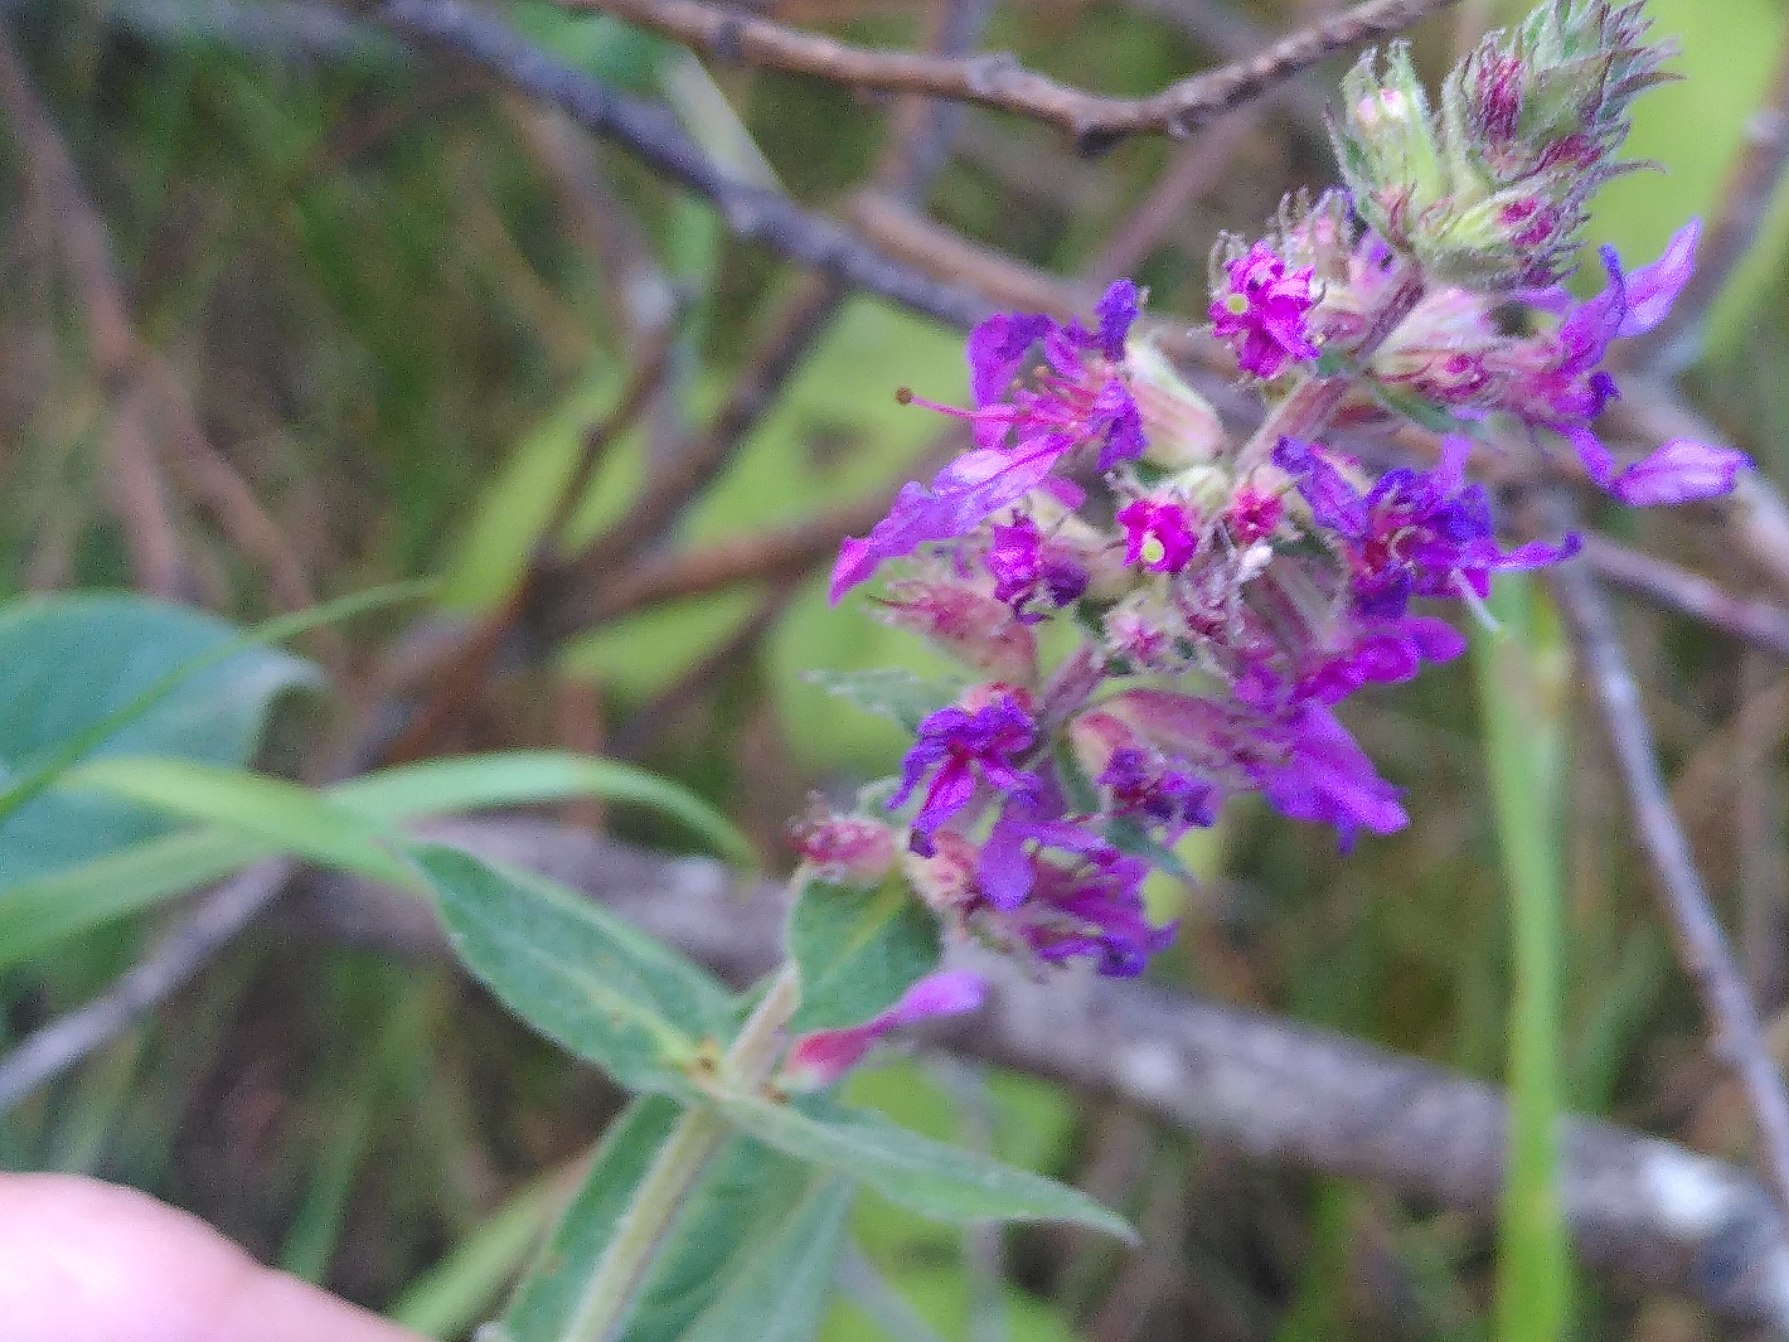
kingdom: Plantae
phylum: Tracheophyta
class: Magnoliopsida
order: Myrtales
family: Lythraceae
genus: Lythrum
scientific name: Lythrum salicaria
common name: Kattehale
